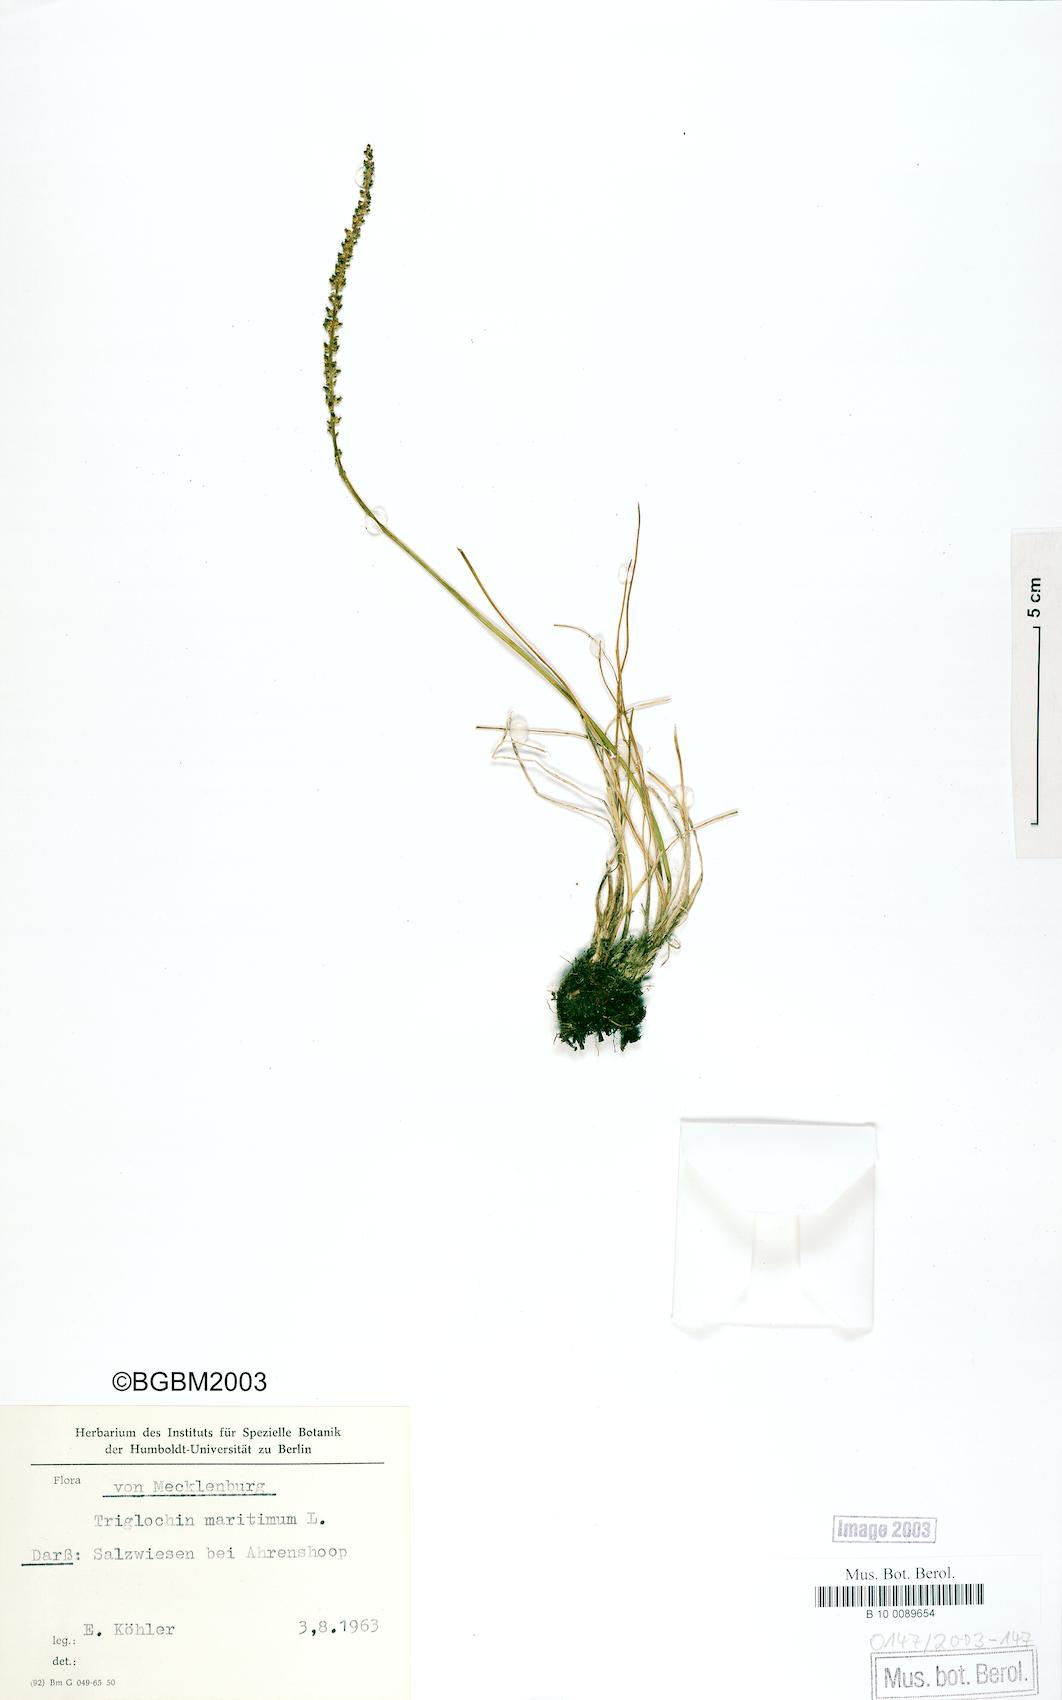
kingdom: Plantae
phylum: Tracheophyta
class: Liliopsida
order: Alismatales
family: Juncaginaceae
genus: Triglochin
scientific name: Triglochin maritima
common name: Sea arrowgrass
